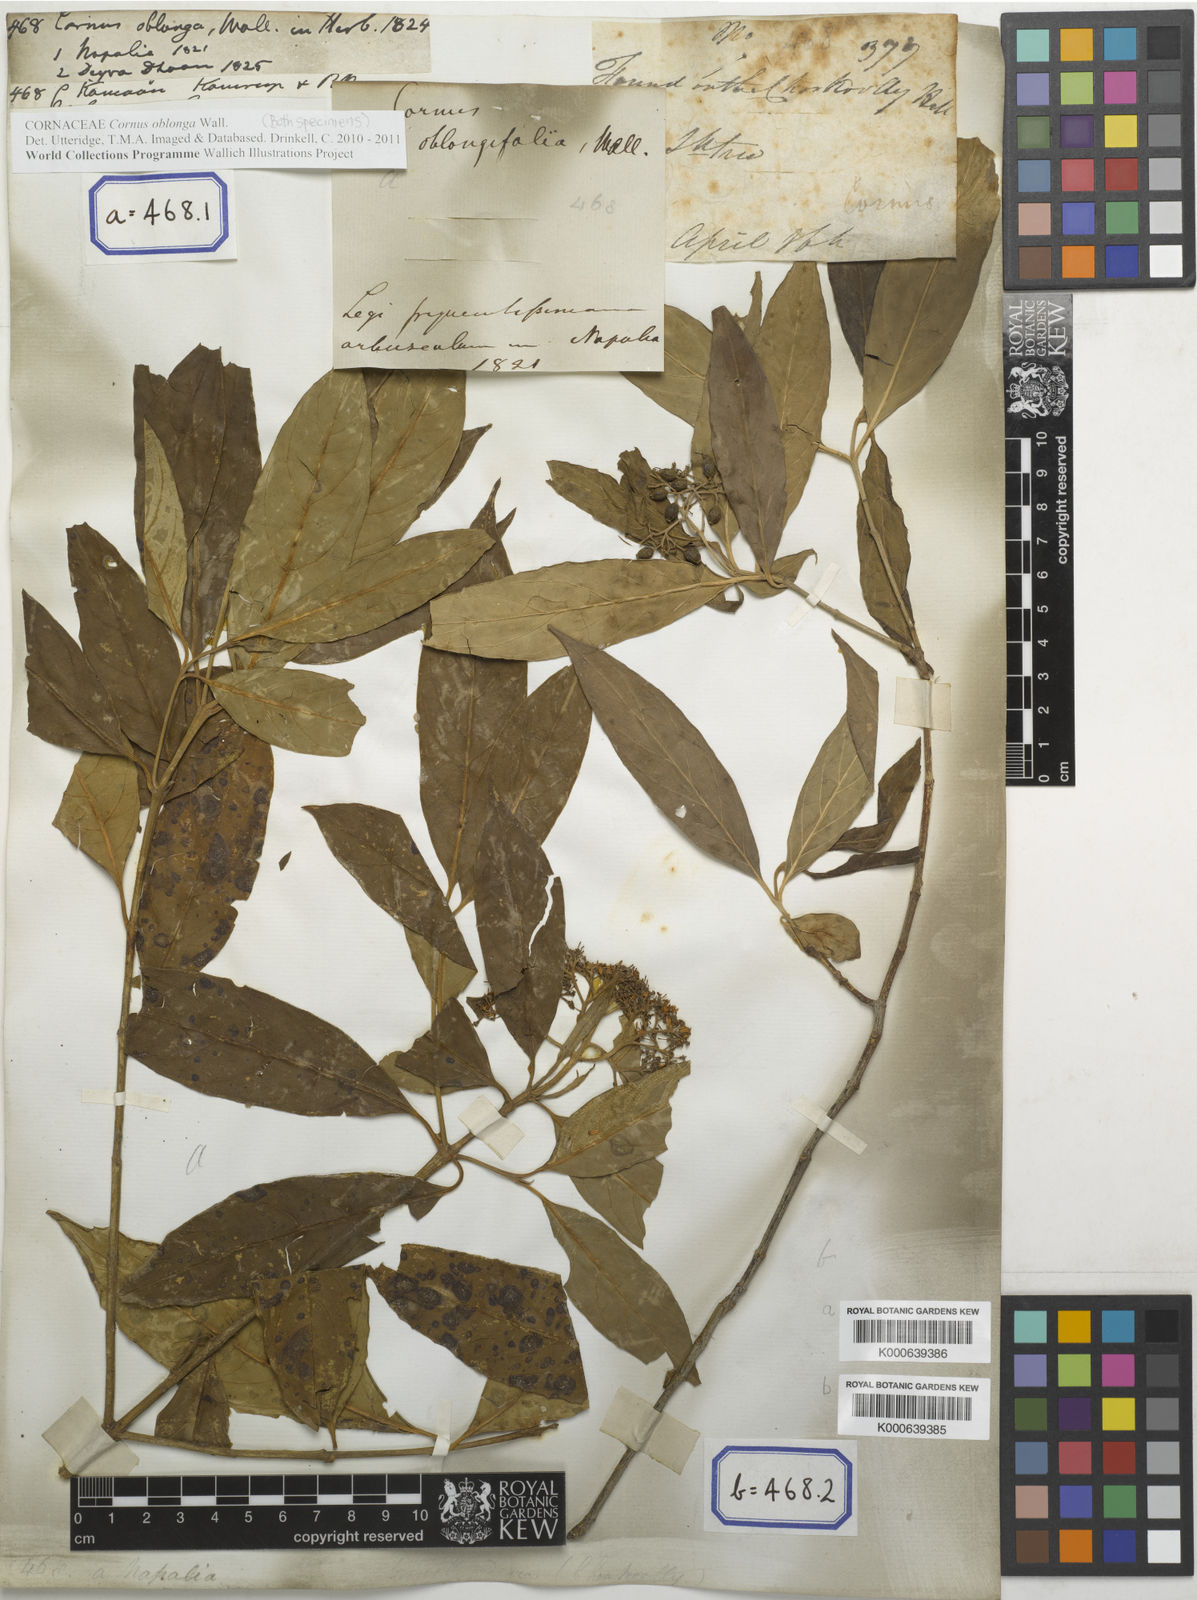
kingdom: Plantae
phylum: Tracheophyta
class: Magnoliopsida
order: Cornales
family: Cornaceae
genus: Cornus
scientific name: Cornus oblonga
